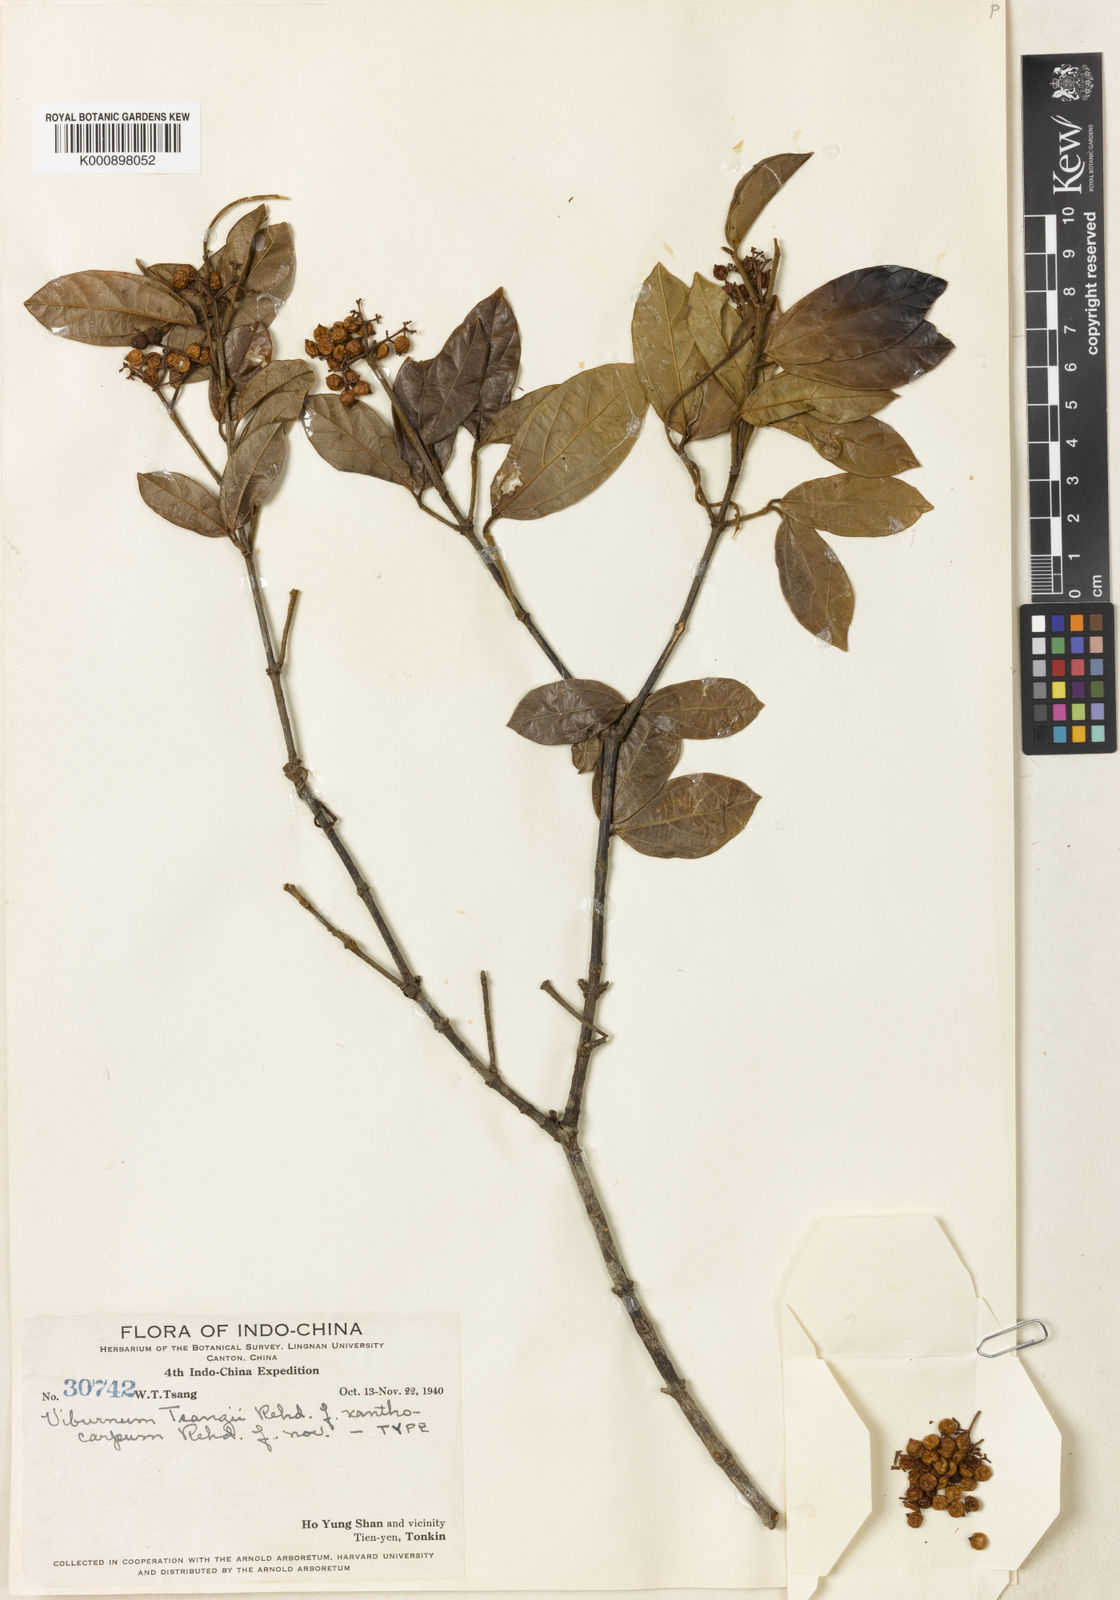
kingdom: Plantae
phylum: Tracheophyta
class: Magnoliopsida
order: Dipsacales
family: Viburnaceae
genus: Viburnum
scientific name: Viburnum hainanense
